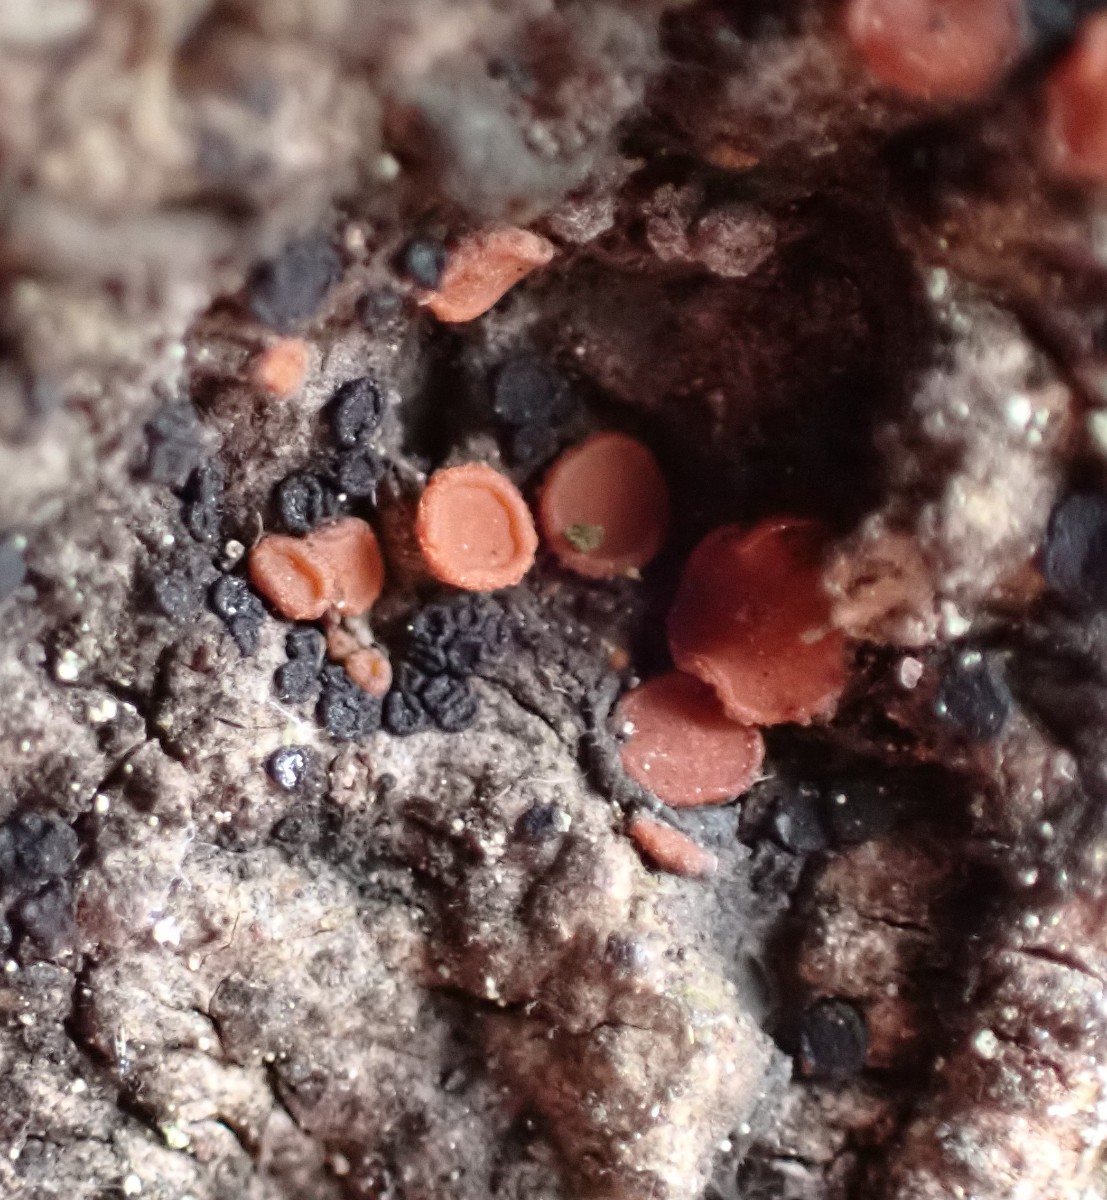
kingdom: Fungi
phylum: Ascomycota
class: Sareomycetes
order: Sareales
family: Sareaceae
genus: Sarea
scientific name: Sarea difformis
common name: mørk harpiksskive
